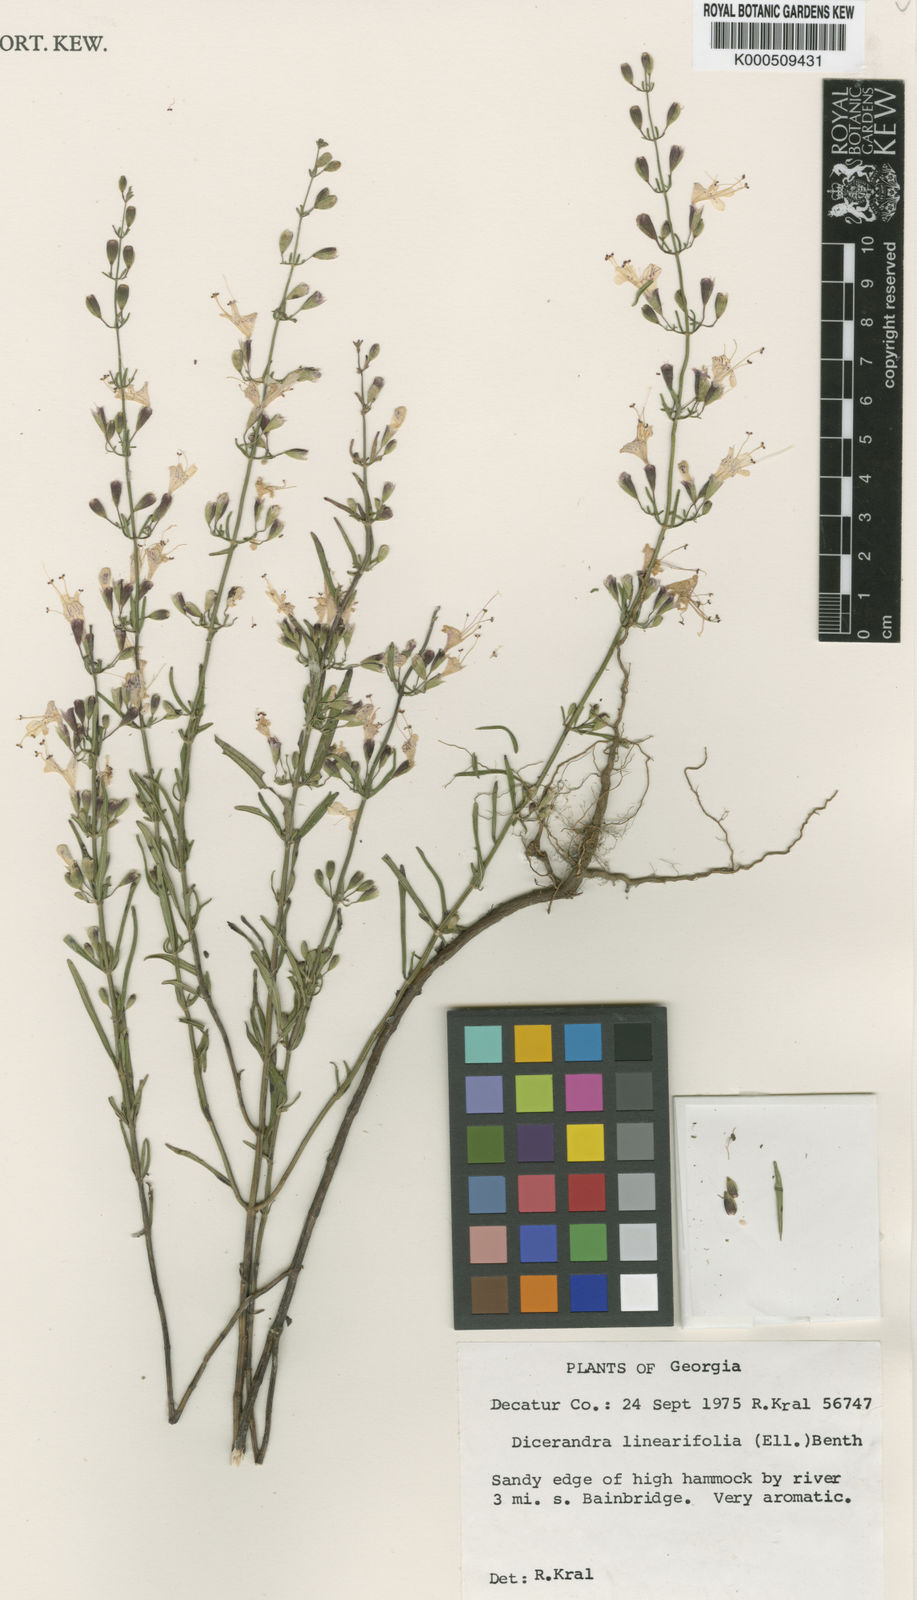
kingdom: Plantae
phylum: Tracheophyta
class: Magnoliopsida
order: Lamiales
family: Lamiaceae
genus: Dicerandra
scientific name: Dicerandra linearifolia
